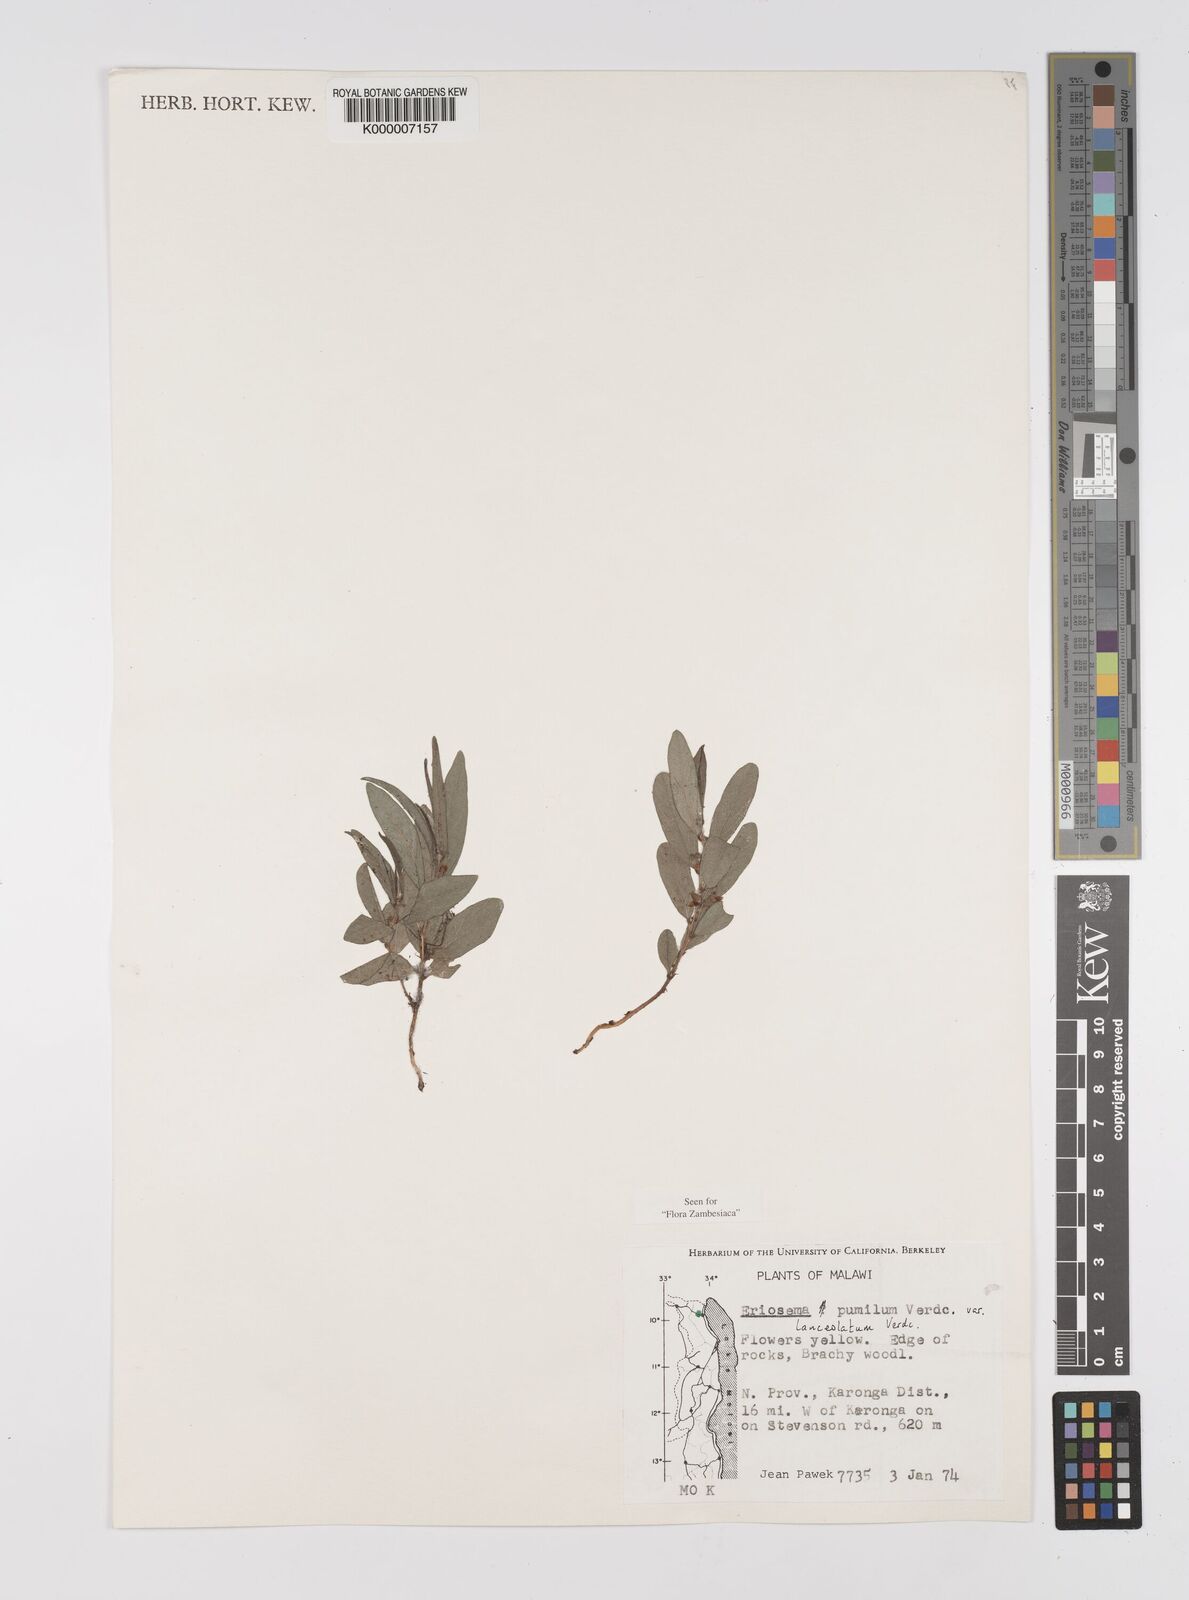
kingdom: Plantae
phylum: Tracheophyta
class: Magnoliopsida
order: Fabales
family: Fabaceae
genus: Eriosema
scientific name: Eriosema pumilum
